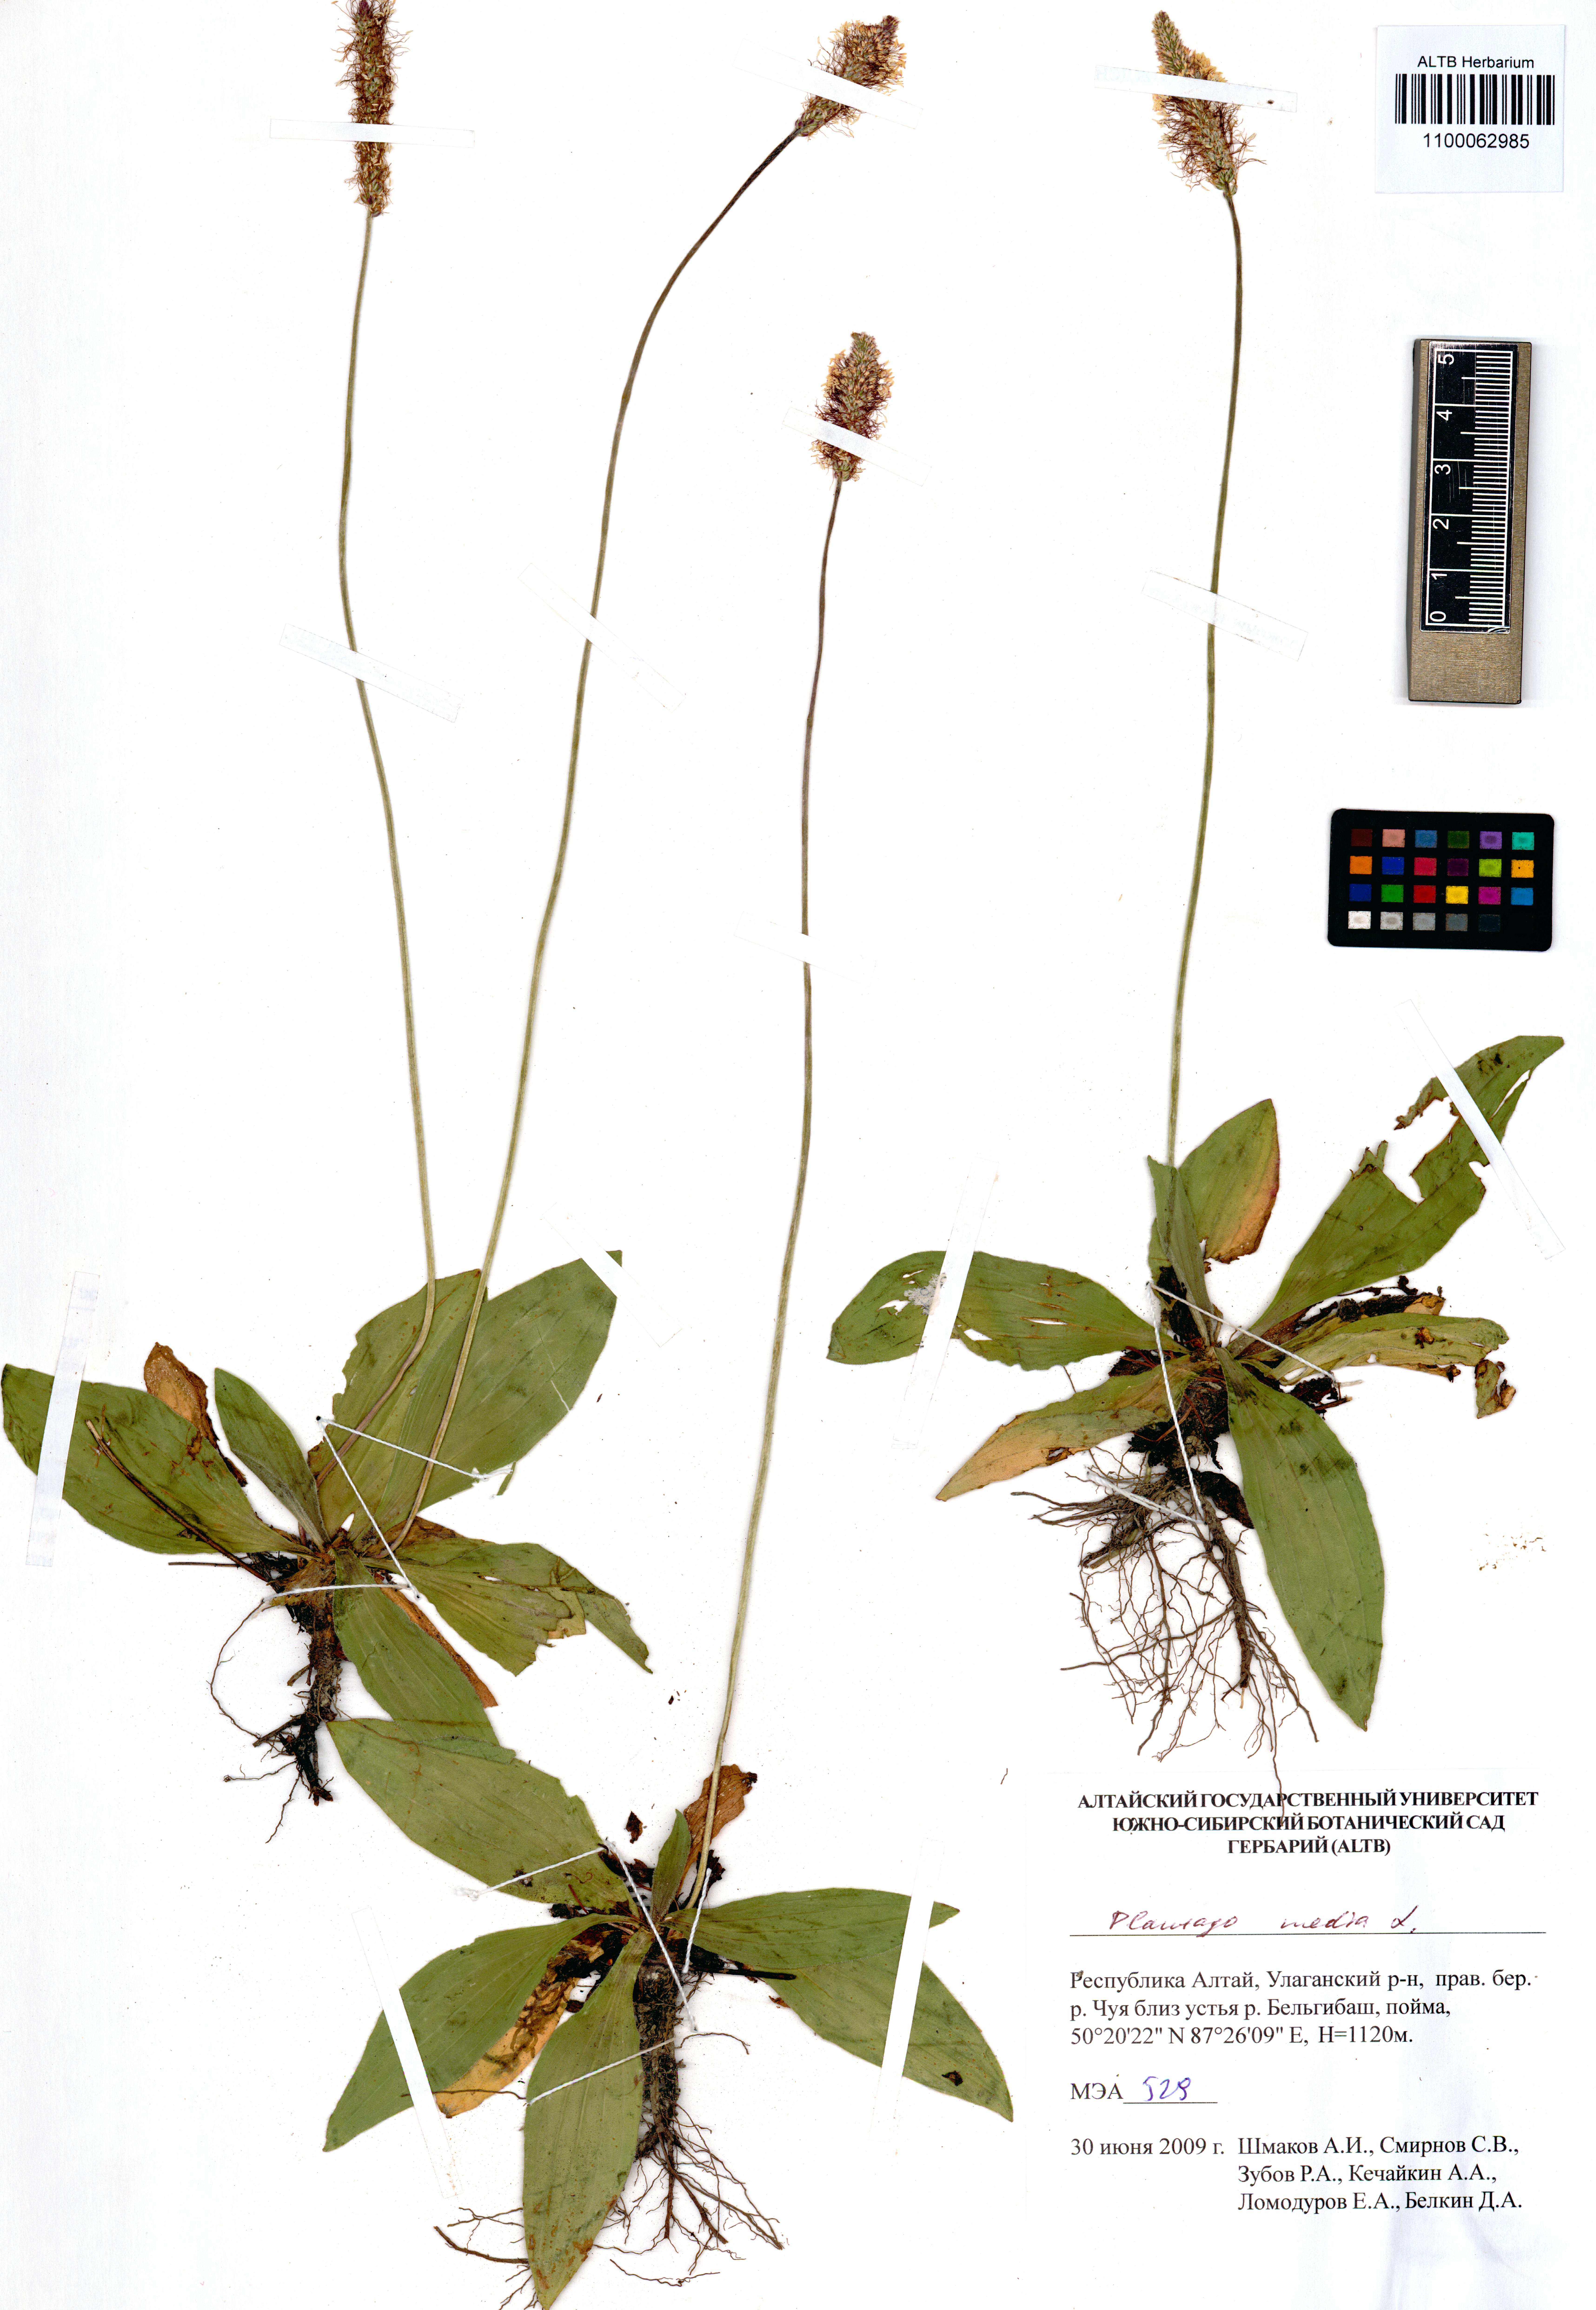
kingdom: Plantae
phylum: Tracheophyta
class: Magnoliopsida
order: Lamiales
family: Plantaginaceae
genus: Plantago
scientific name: Plantago media
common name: Hoary plantain
